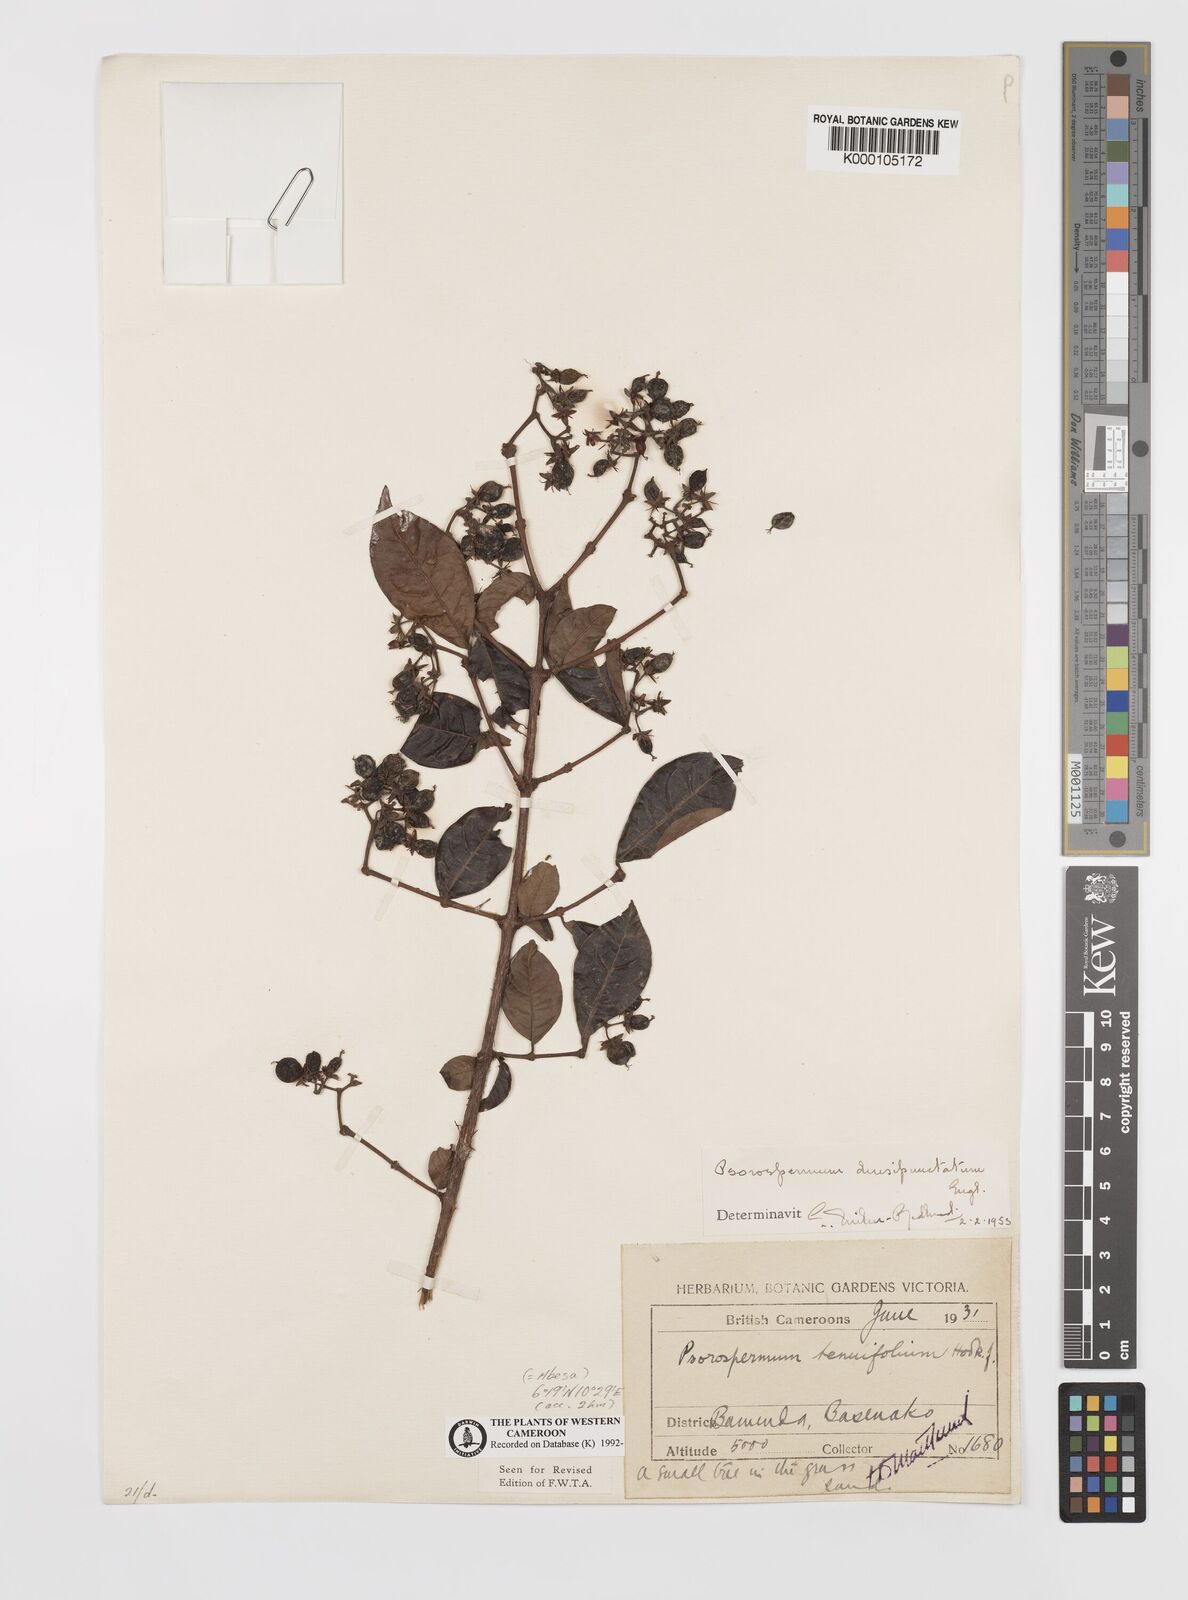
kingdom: Plantae
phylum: Tracheophyta
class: Magnoliopsida
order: Malpighiales
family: Hypericaceae
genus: Psorospermum
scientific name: Psorospermum densipunctatum
